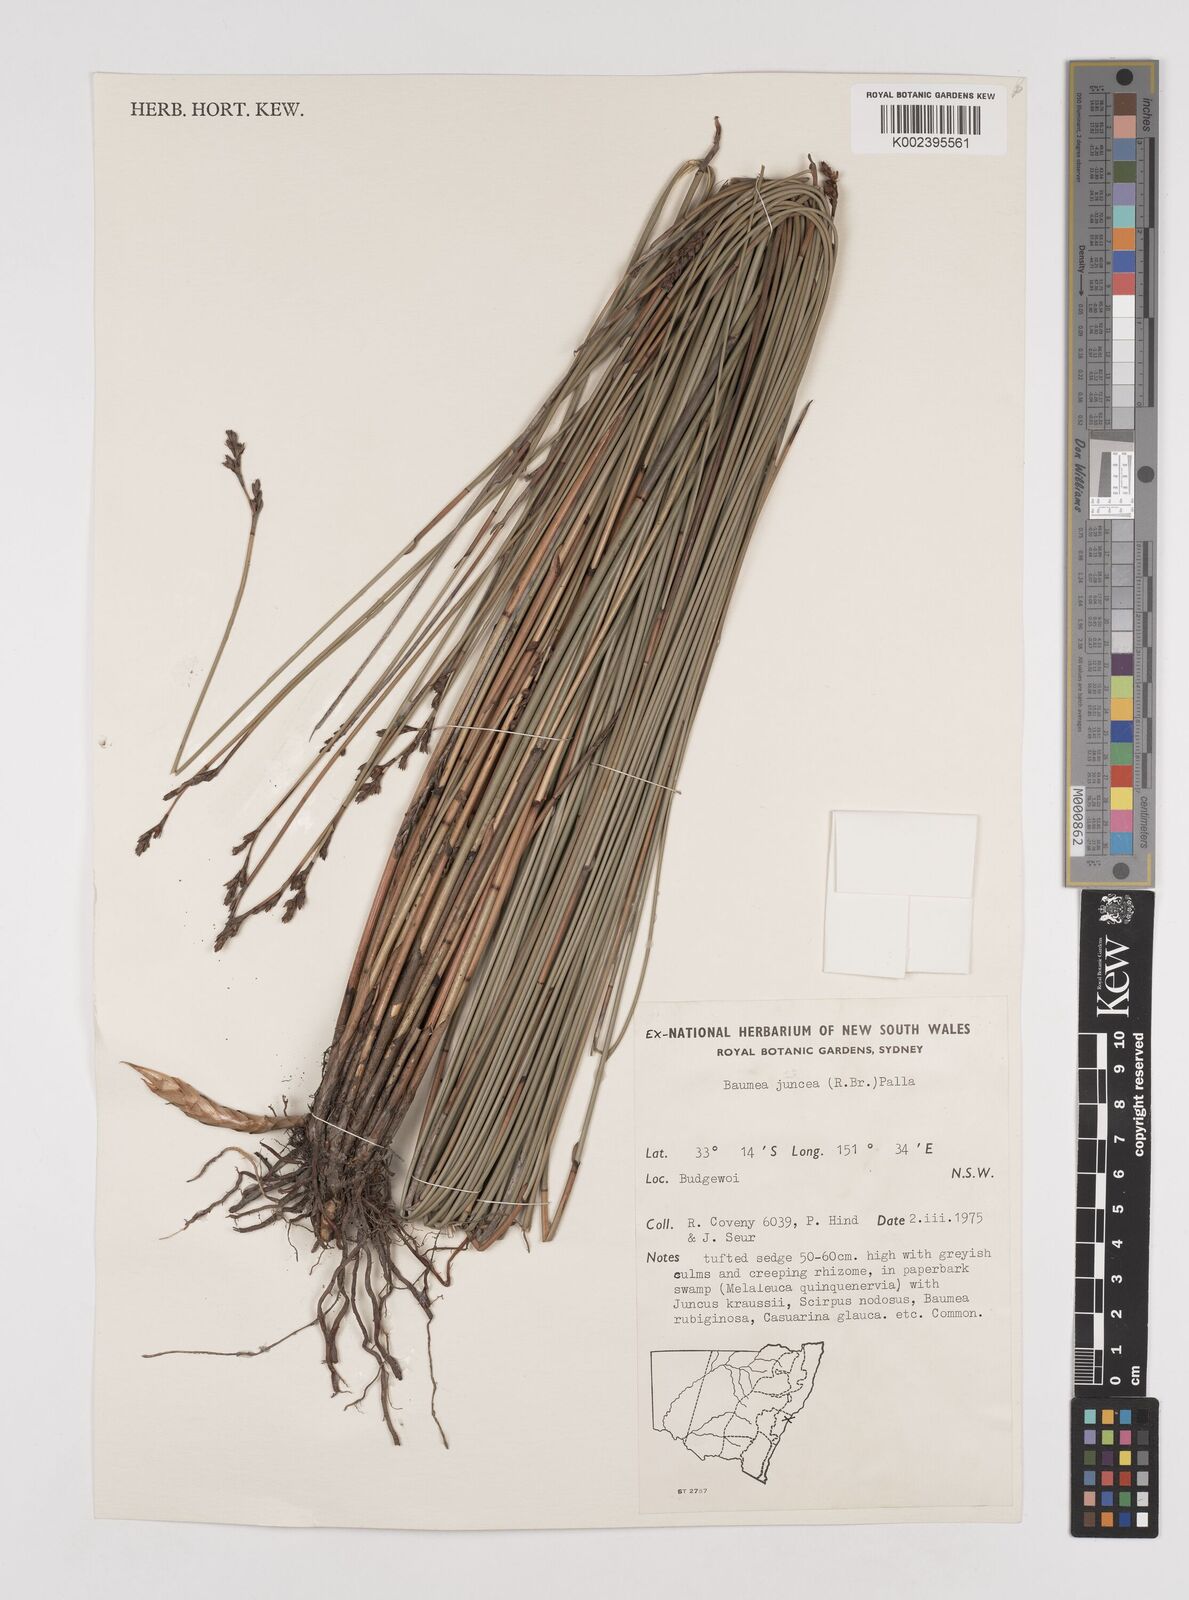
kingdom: Plantae
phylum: Tracheophyta
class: Liliopsida
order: Poales
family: Cyperaceae
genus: Machaerina
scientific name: Machaerina juncea
